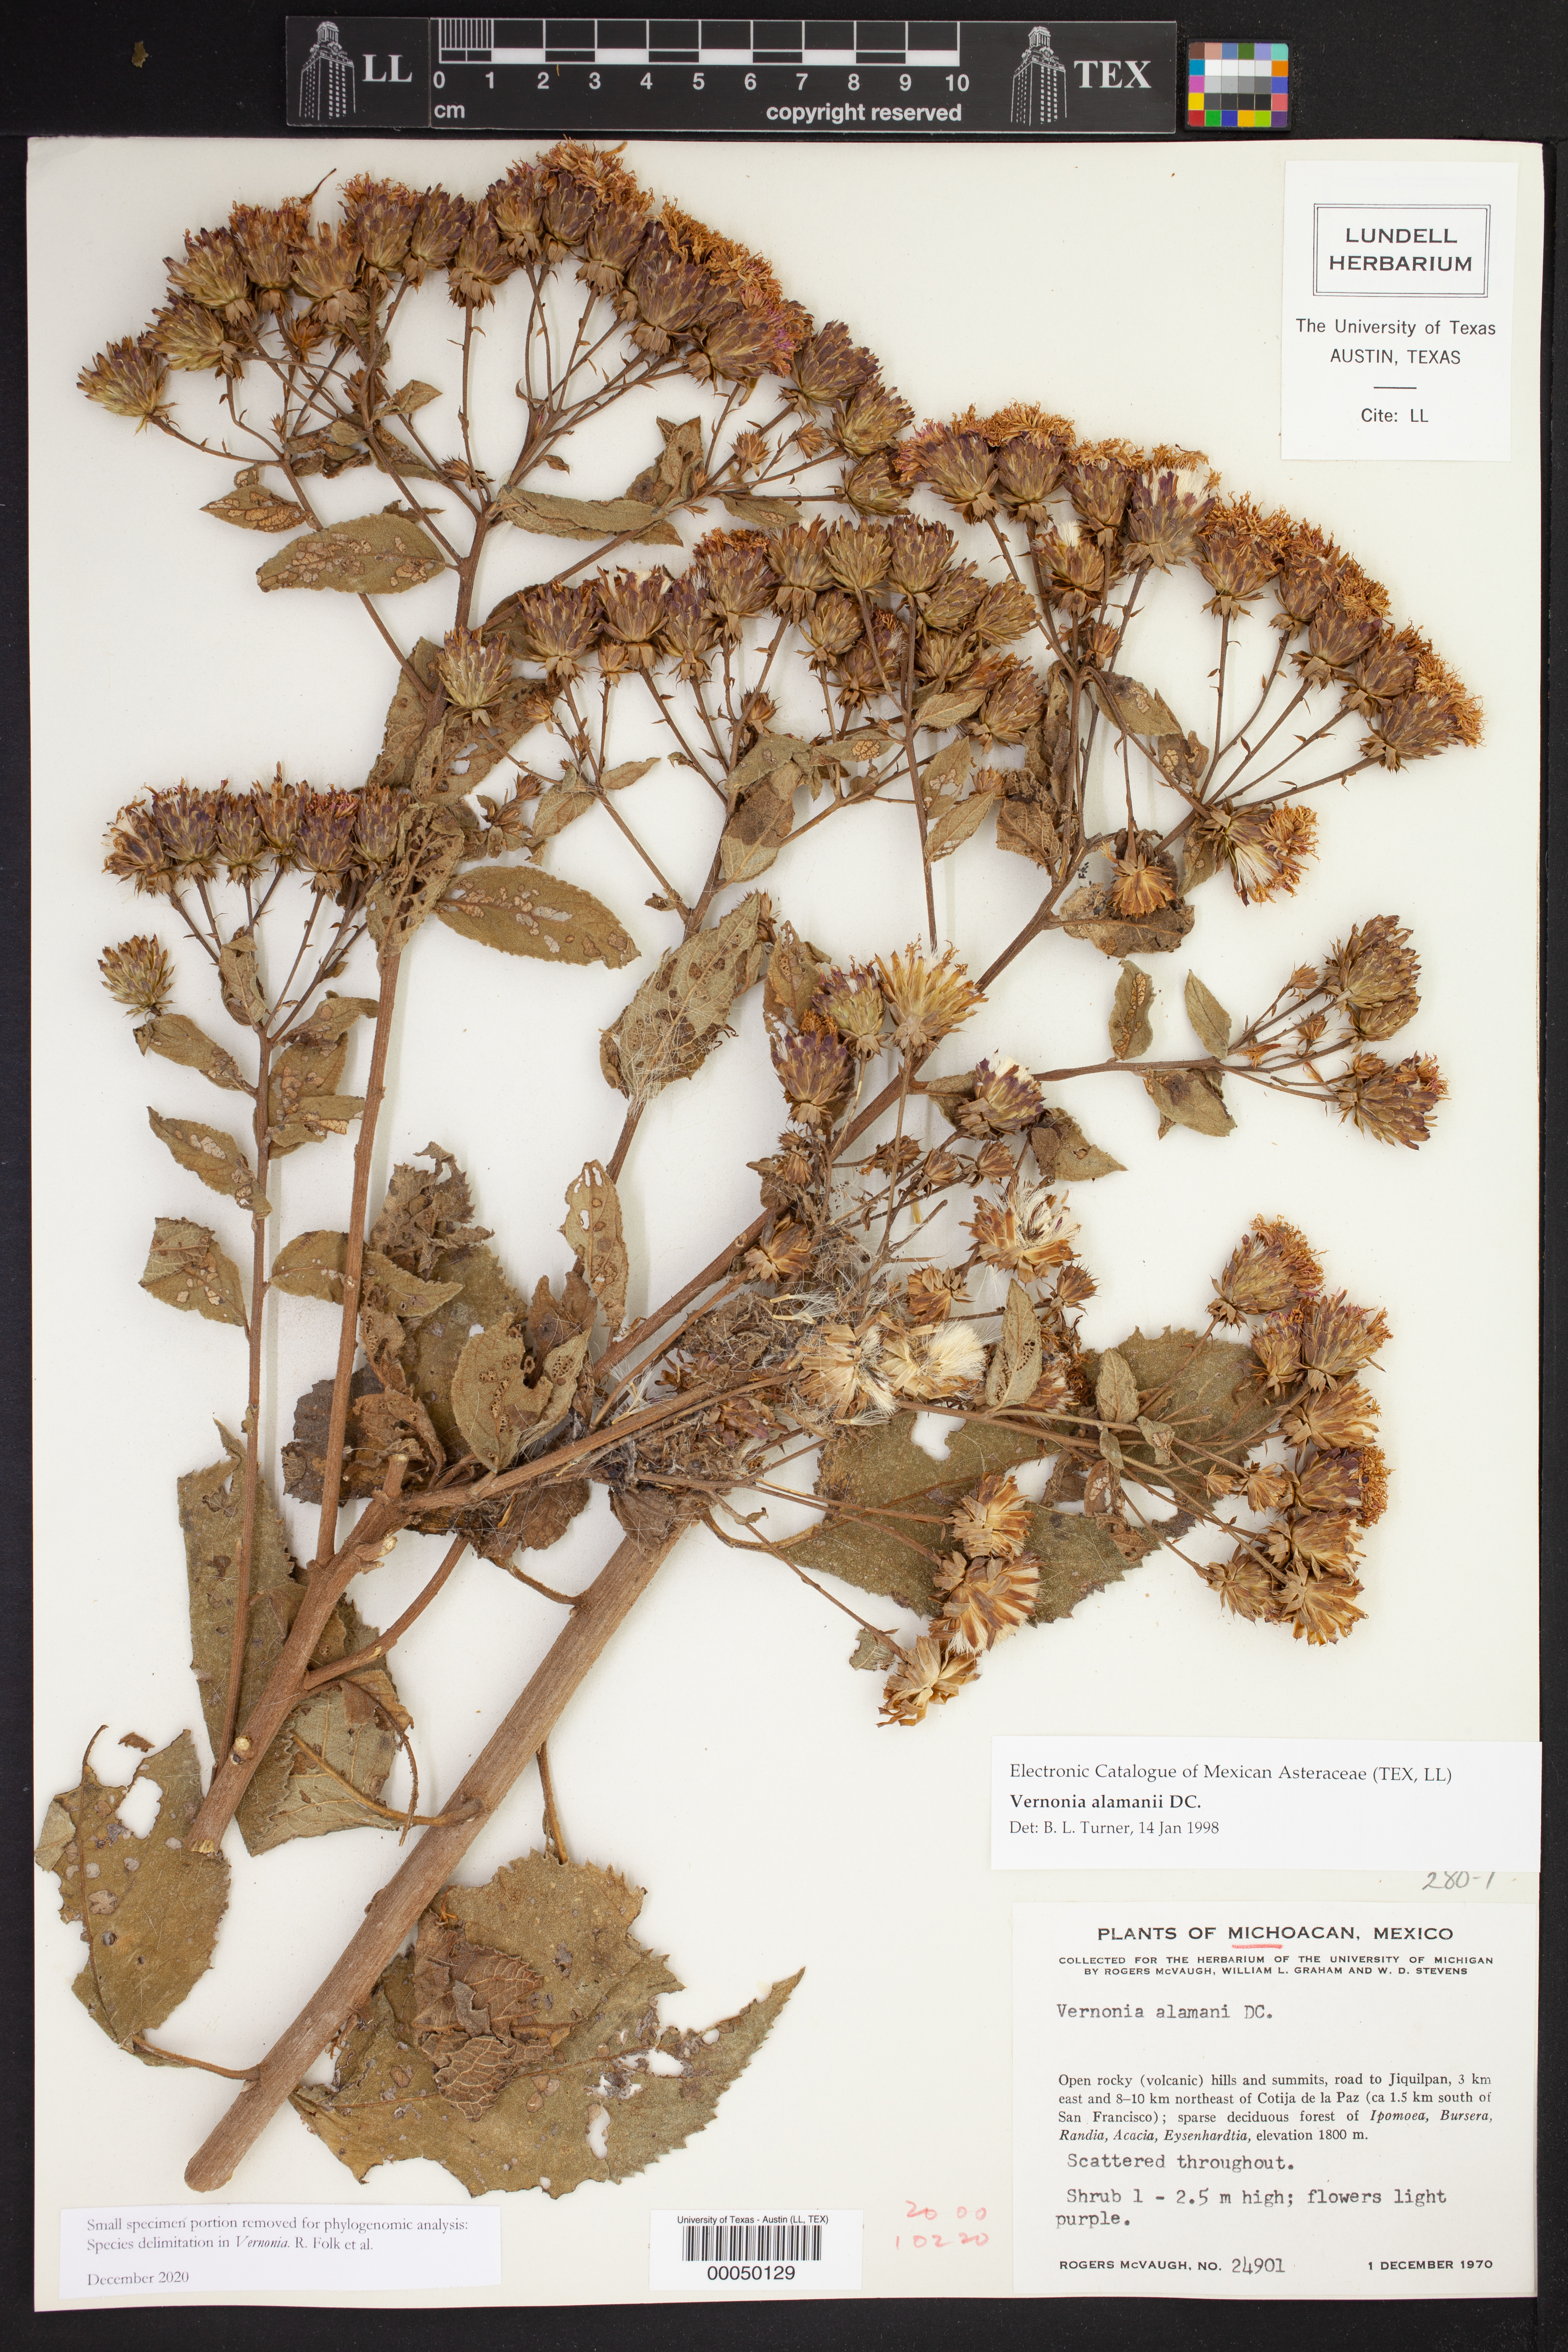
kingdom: Plantae
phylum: Tracheophyta
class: Magnoliopsida
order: Asterales
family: Asteraceae
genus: Vernonanthura
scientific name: Vernonanthura alamanii
